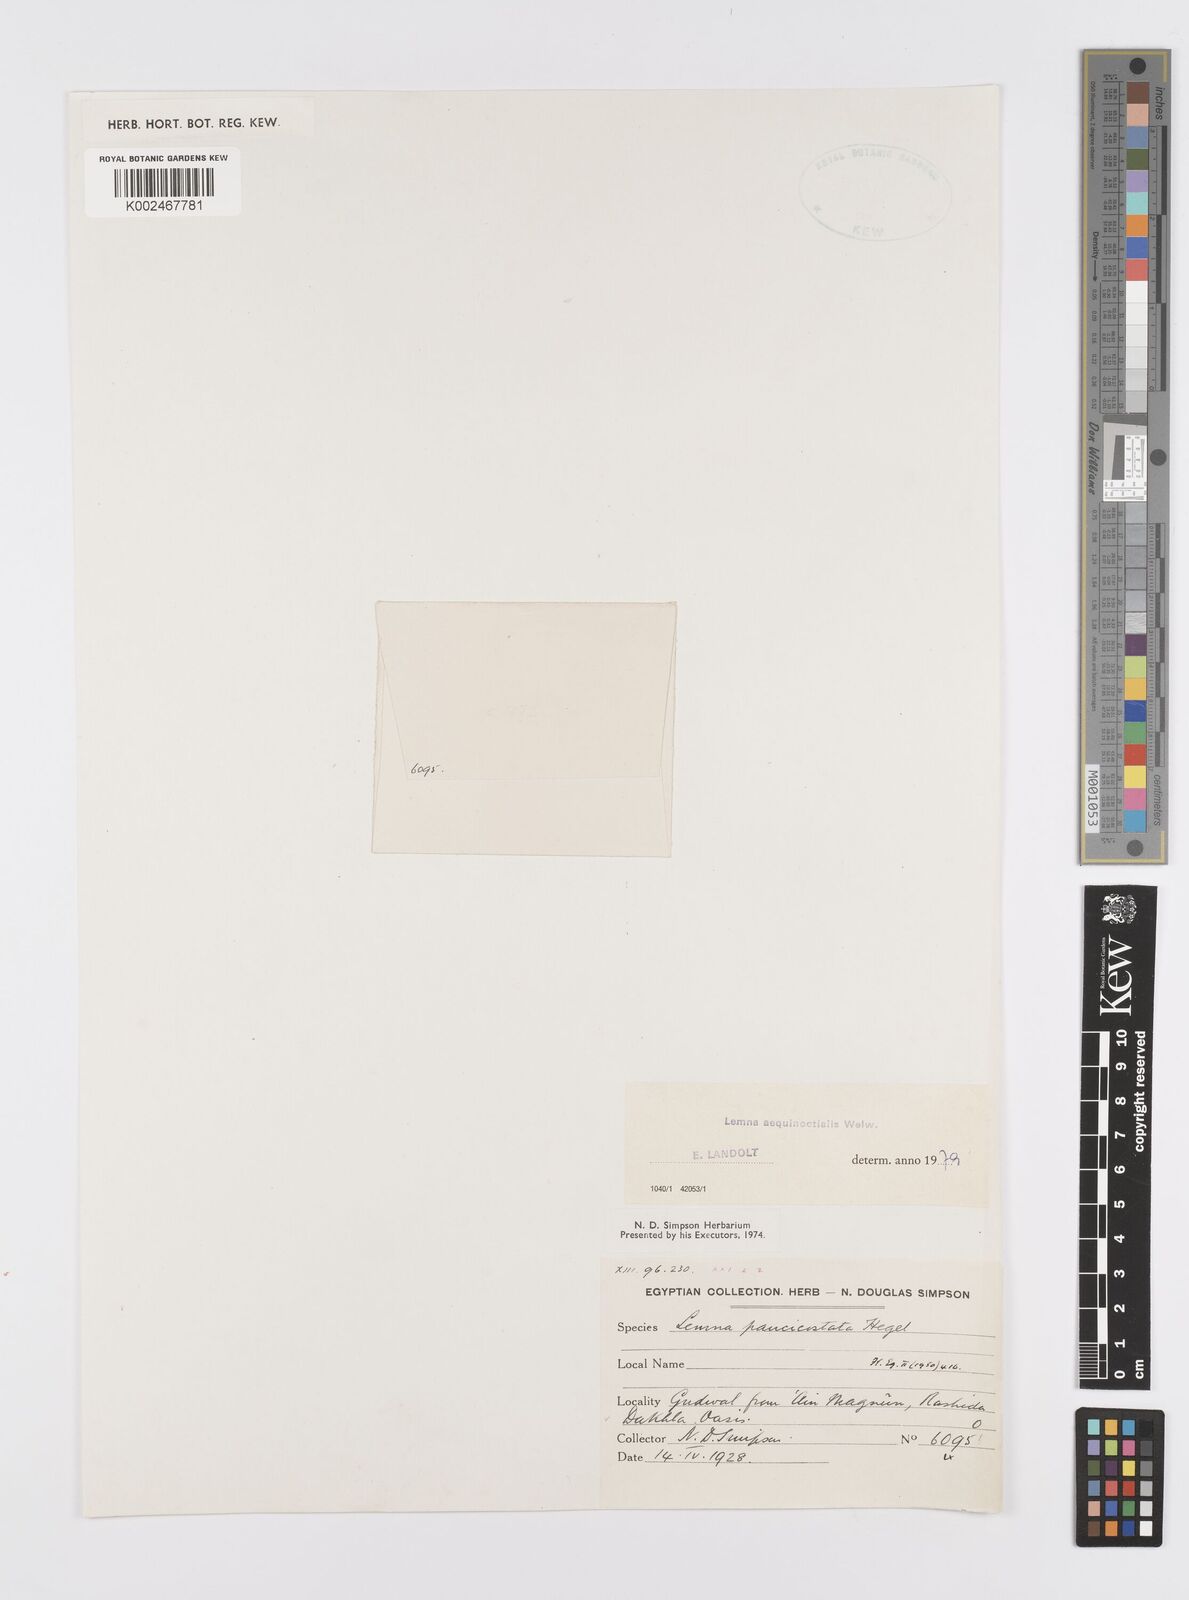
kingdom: Plantae
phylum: Tracheophyta
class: Liliopsida
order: Alismatales
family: Araceae
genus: Lemna
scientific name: Lemna aequinoctialis
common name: Duckweed
